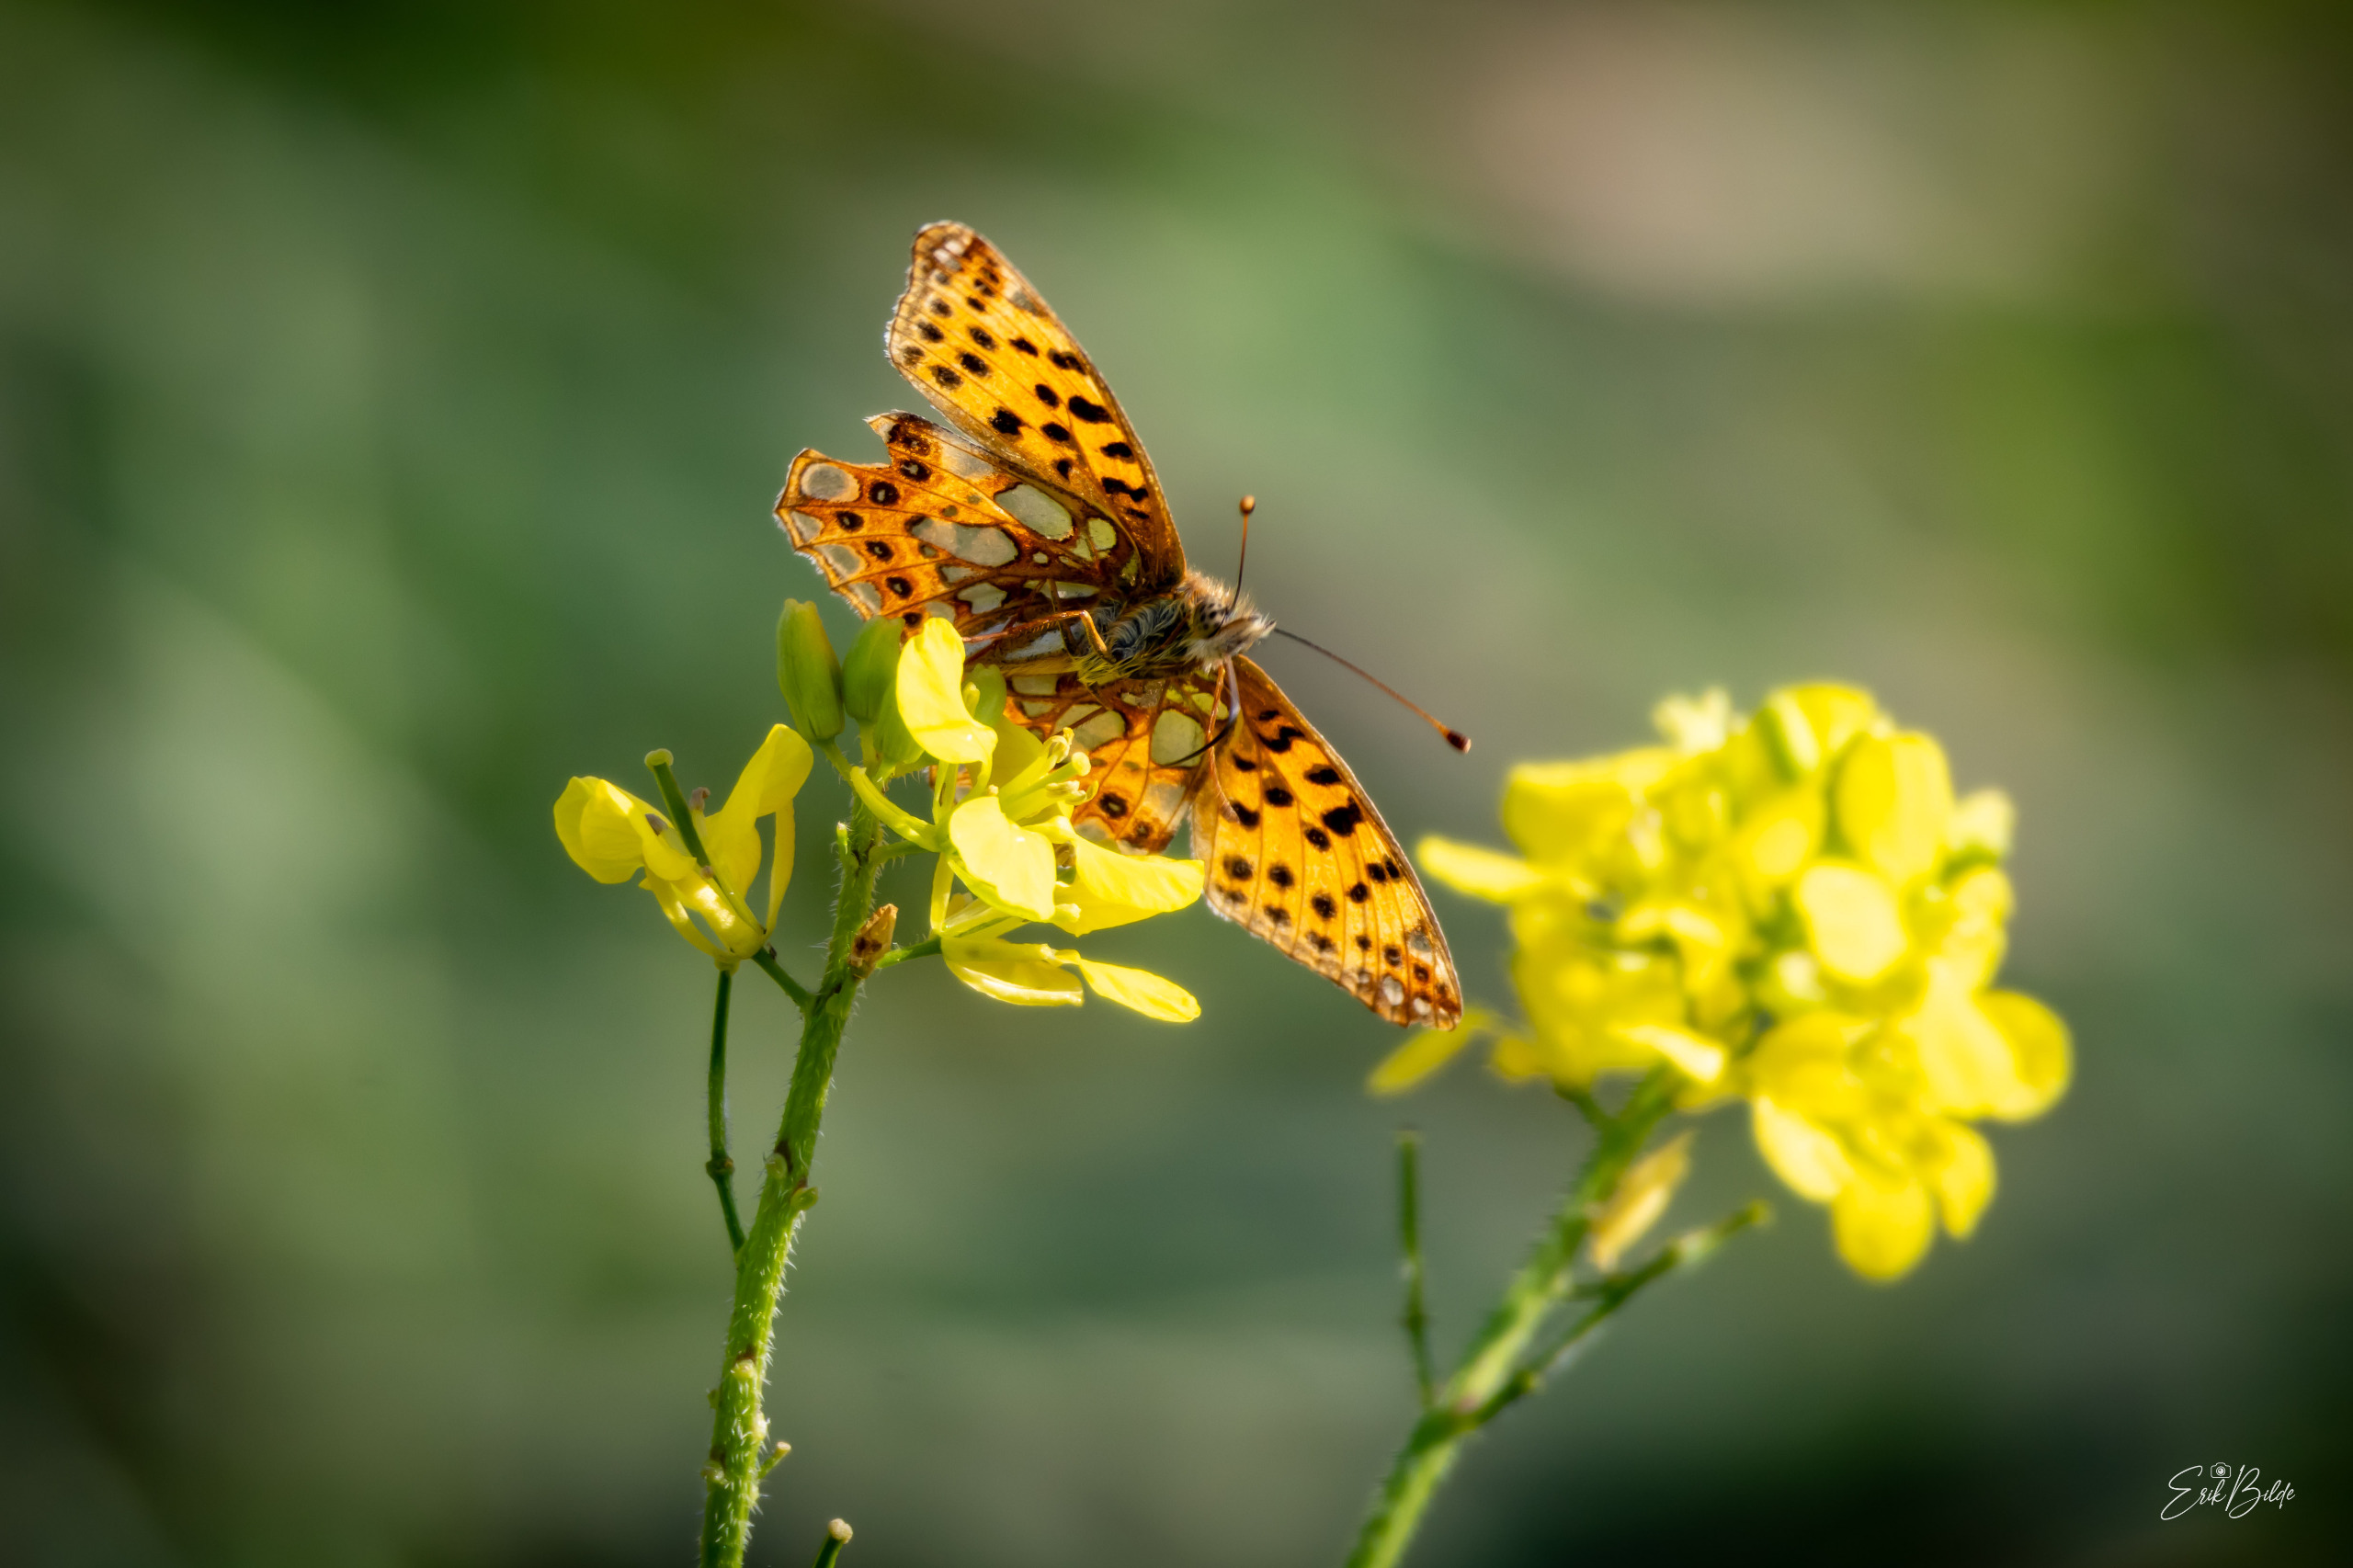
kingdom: Animalia
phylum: Arthropoda
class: Insecta
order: Lepidoptera
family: Nymphalidae
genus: Issoria
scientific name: Issoria lathonia
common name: Storplettet perlemorsommerfugl
